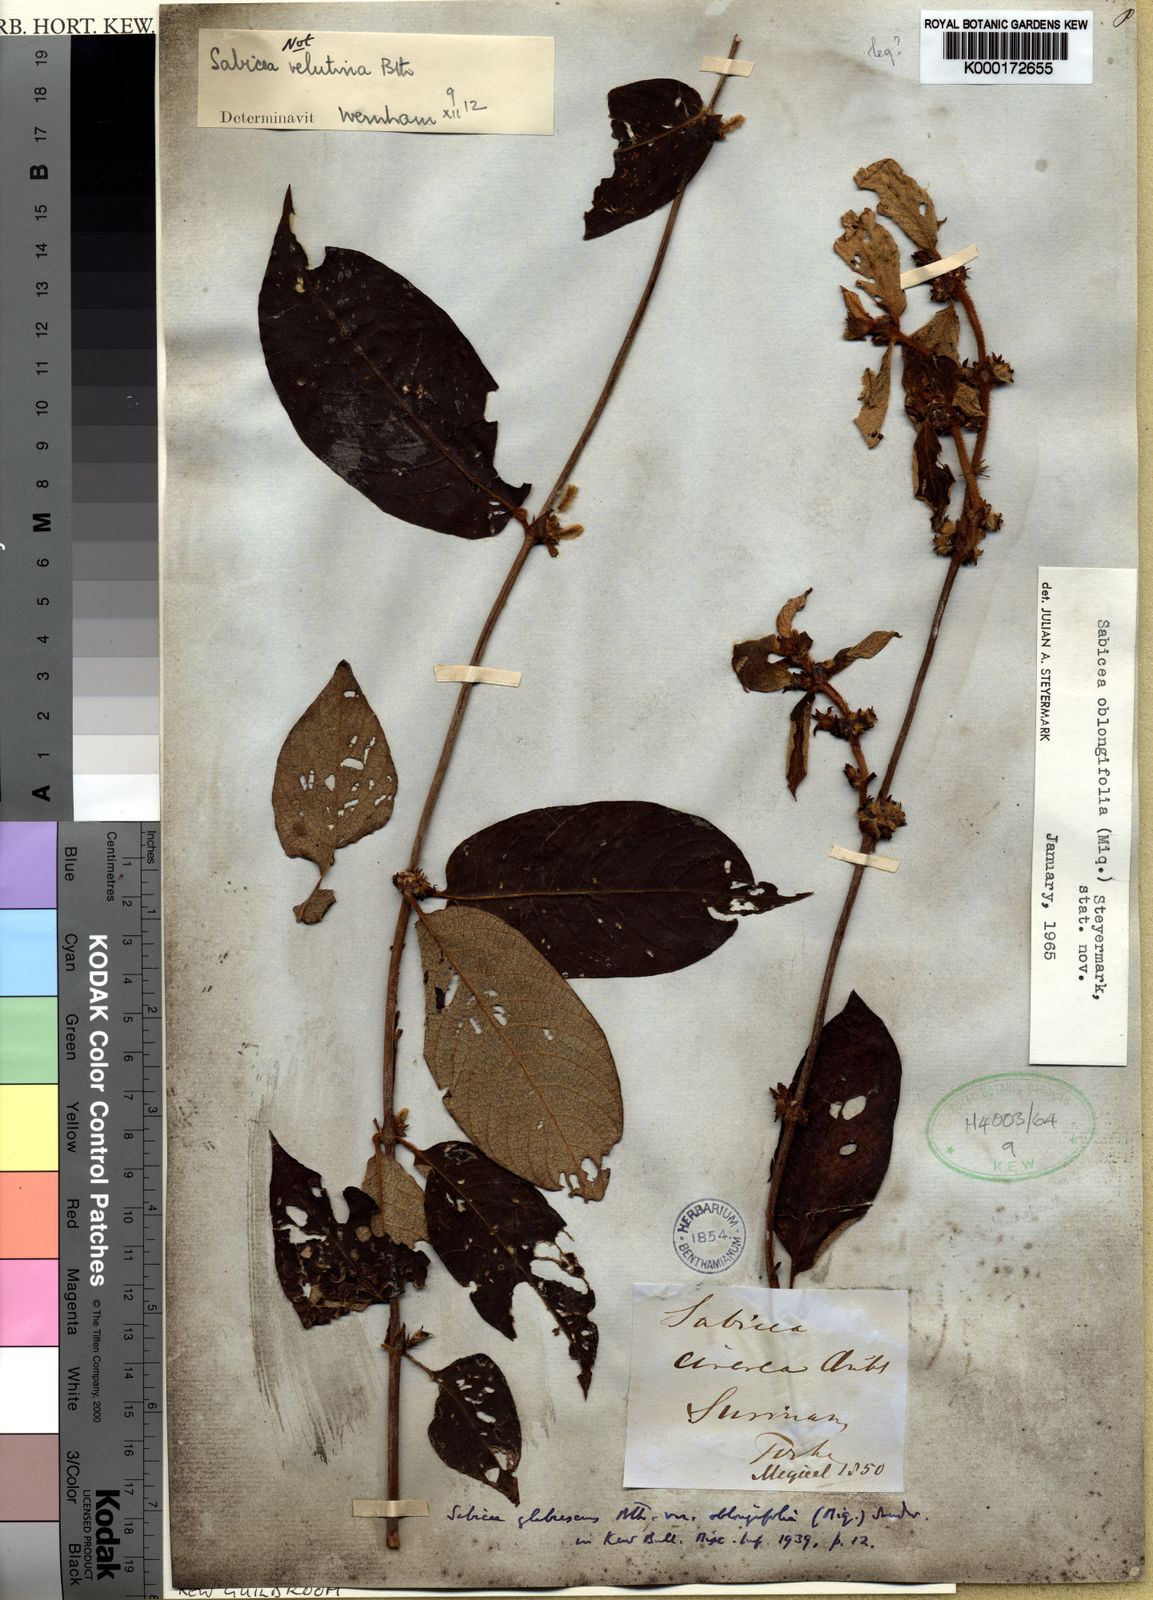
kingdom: Plantae
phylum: Tracheophyta
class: Magnoliopsida
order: Gentianales
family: Rubiaceae
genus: Sabicea
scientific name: Sabicea velutina
